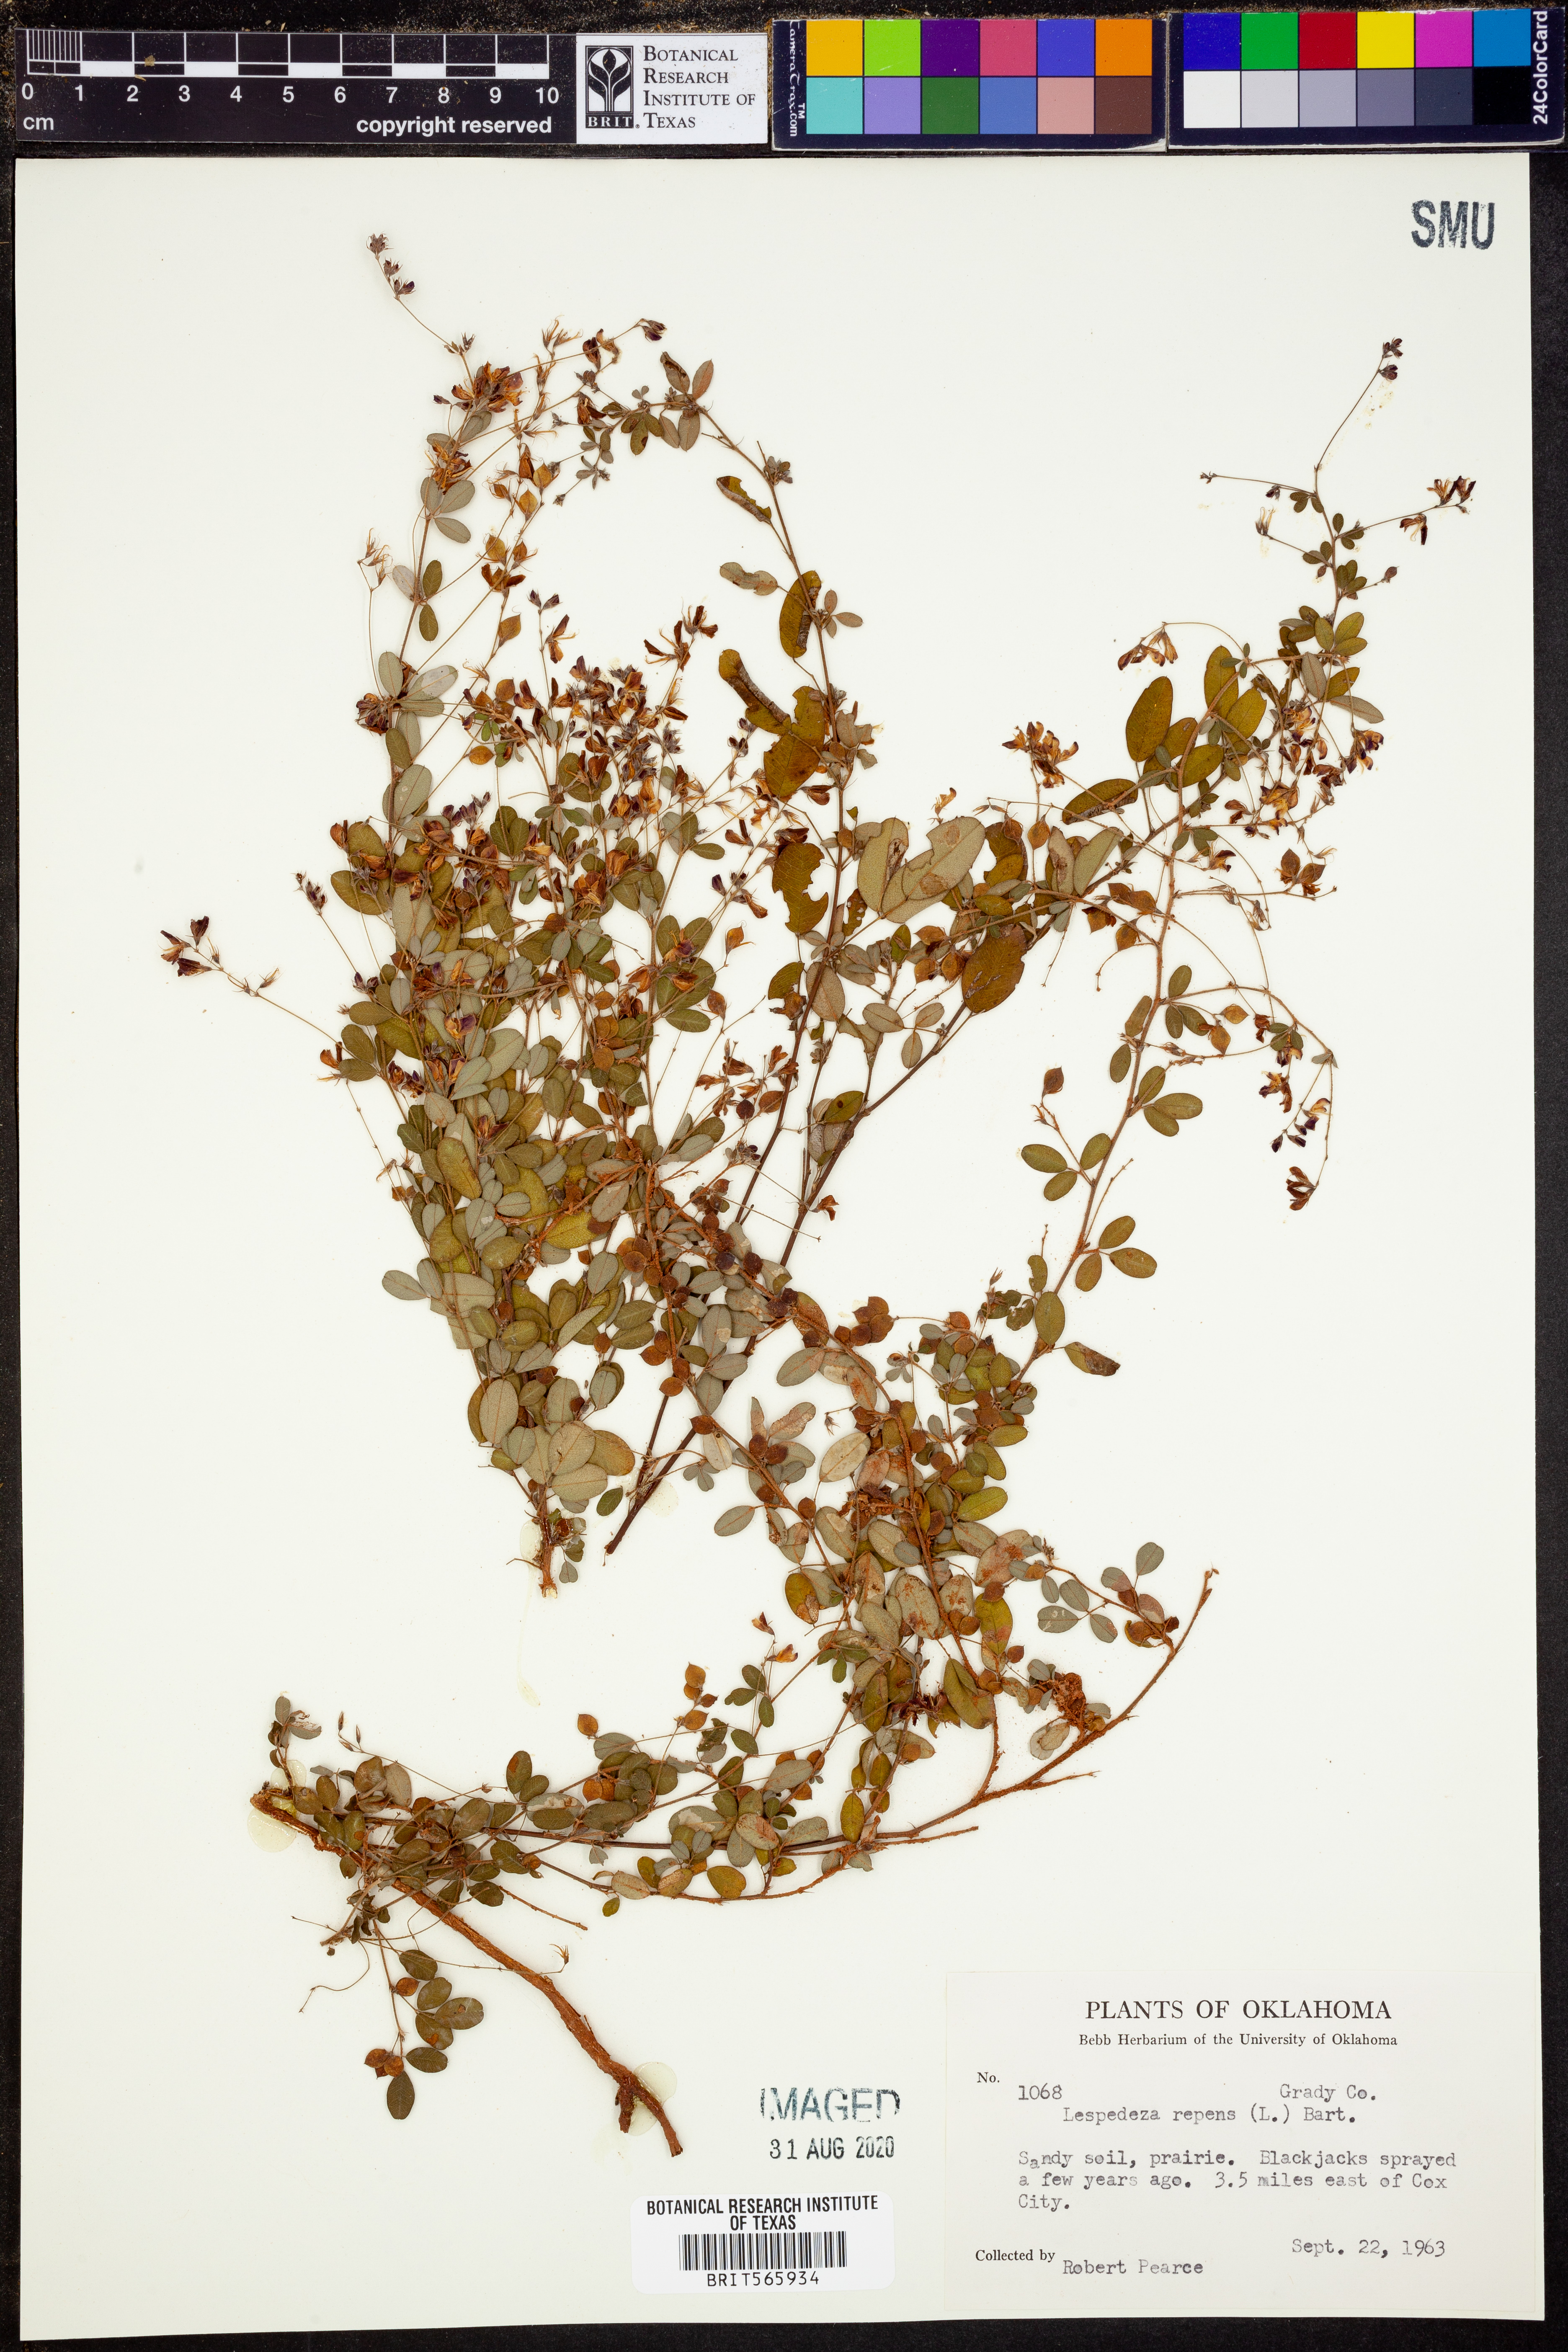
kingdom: Plantae
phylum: Tracheophyta
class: Magnoliopsida
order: Fabales
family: Fabaceae
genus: Lespedeza
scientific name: Lespedeza repens
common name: Creeping bush-clover
